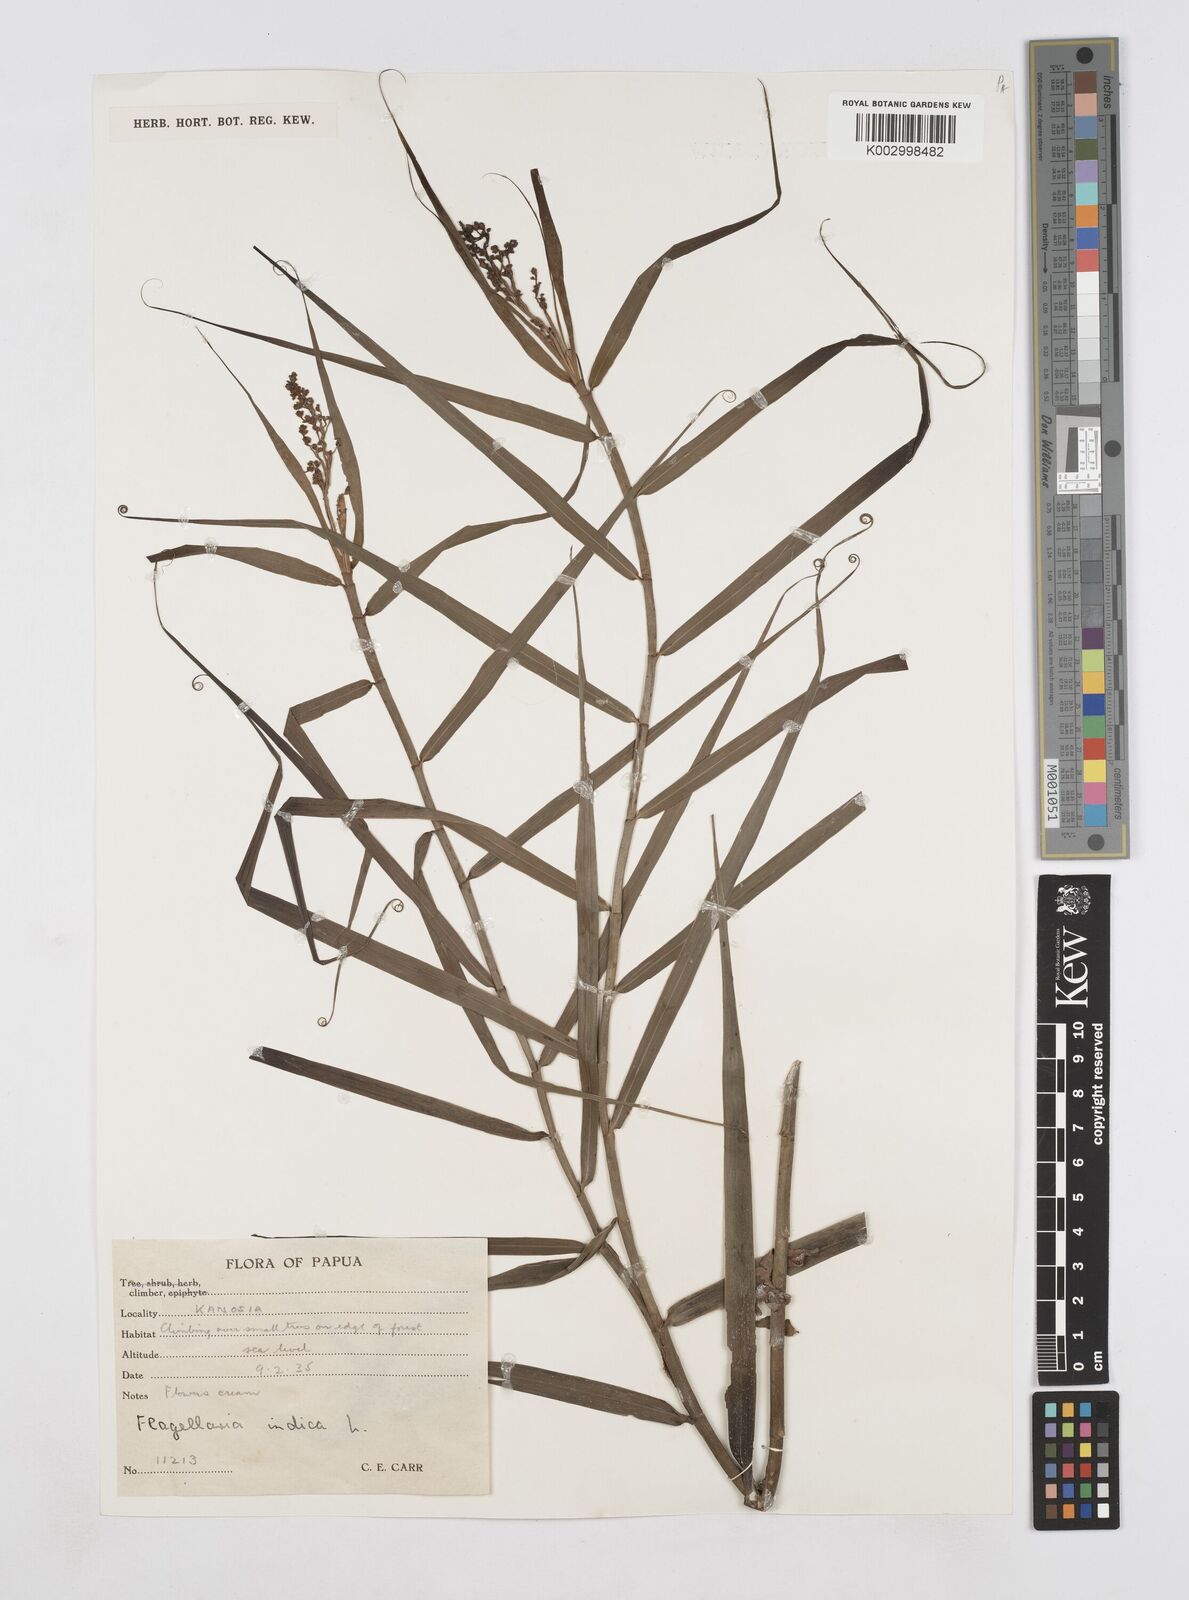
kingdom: Plantae
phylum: Tracheophyta
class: Liliopsida
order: Poales
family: Flagellariaceae
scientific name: Flagellariaceae
